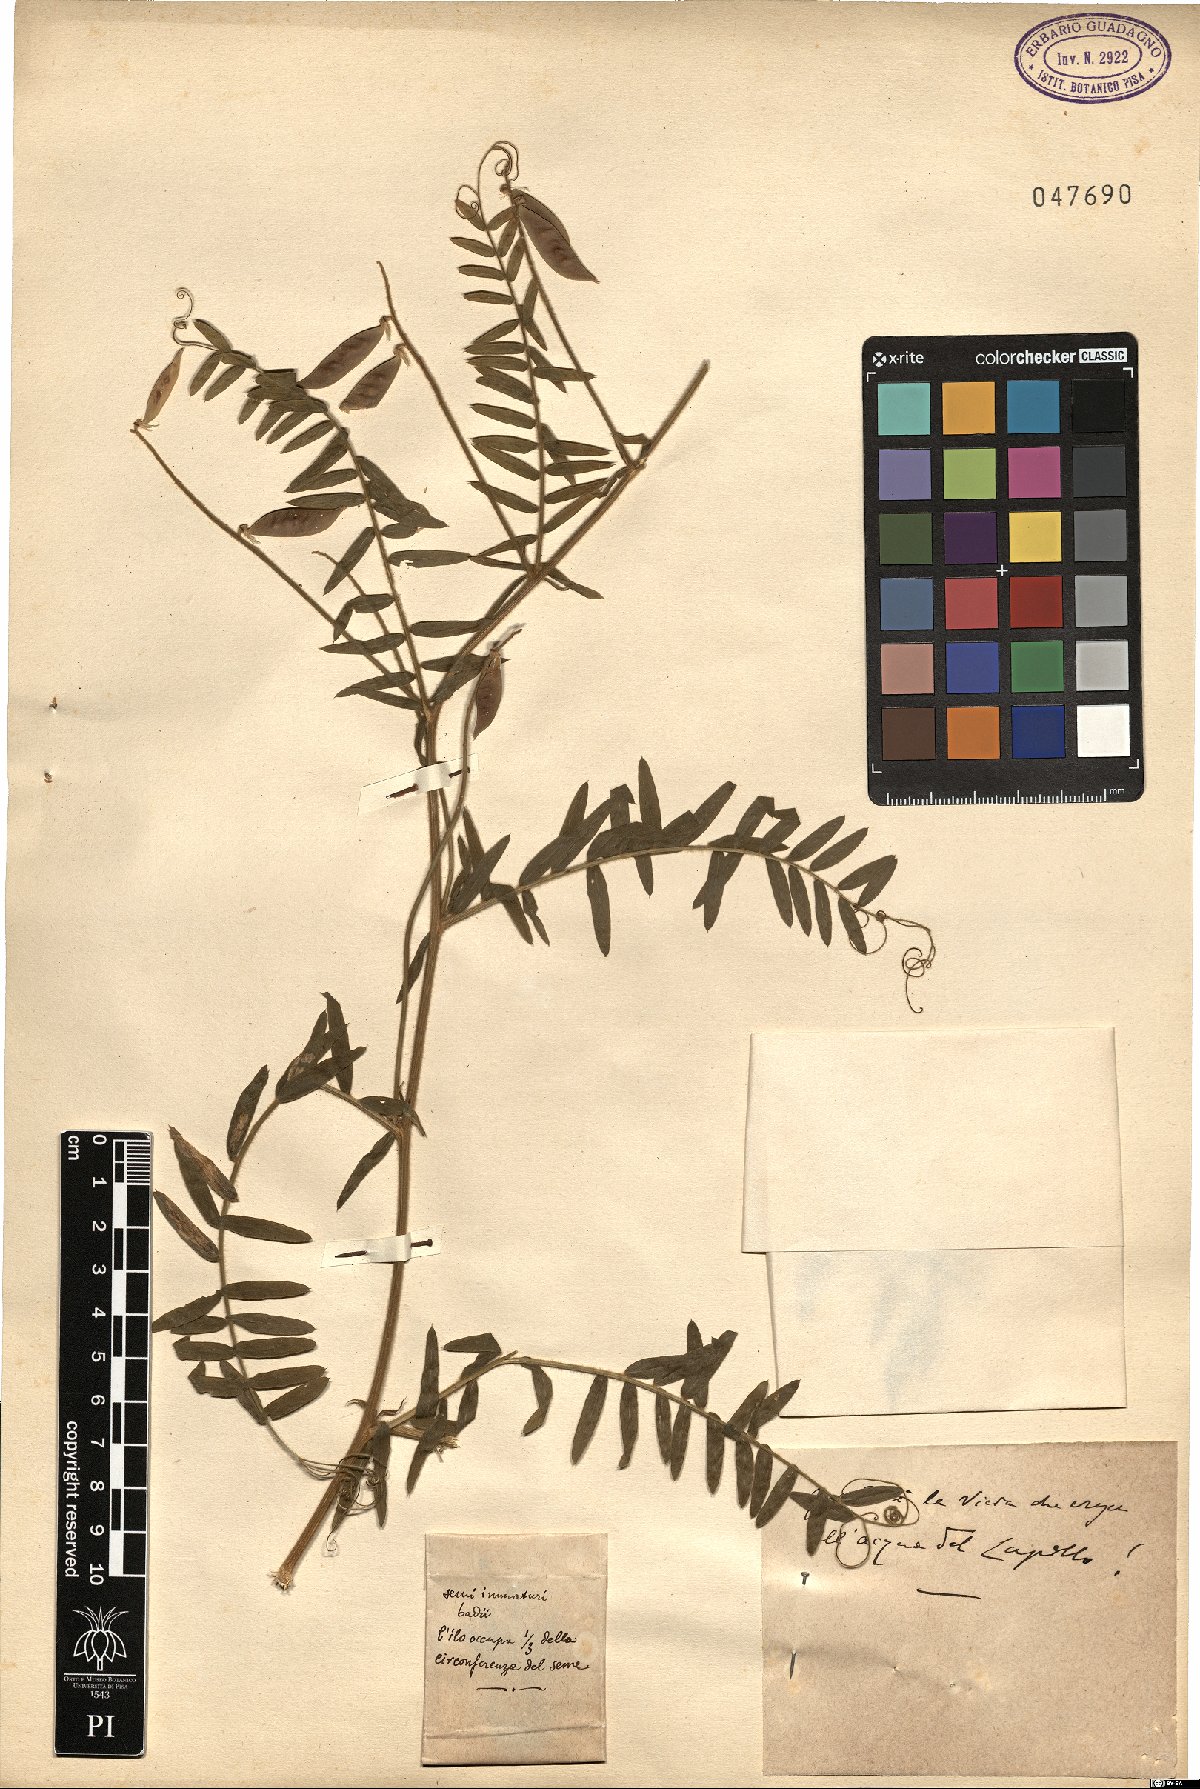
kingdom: Plantae
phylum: Tracheophyta
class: Magnoliopsida
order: Fabales
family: Fabaceae
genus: Vicia
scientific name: Vicia
